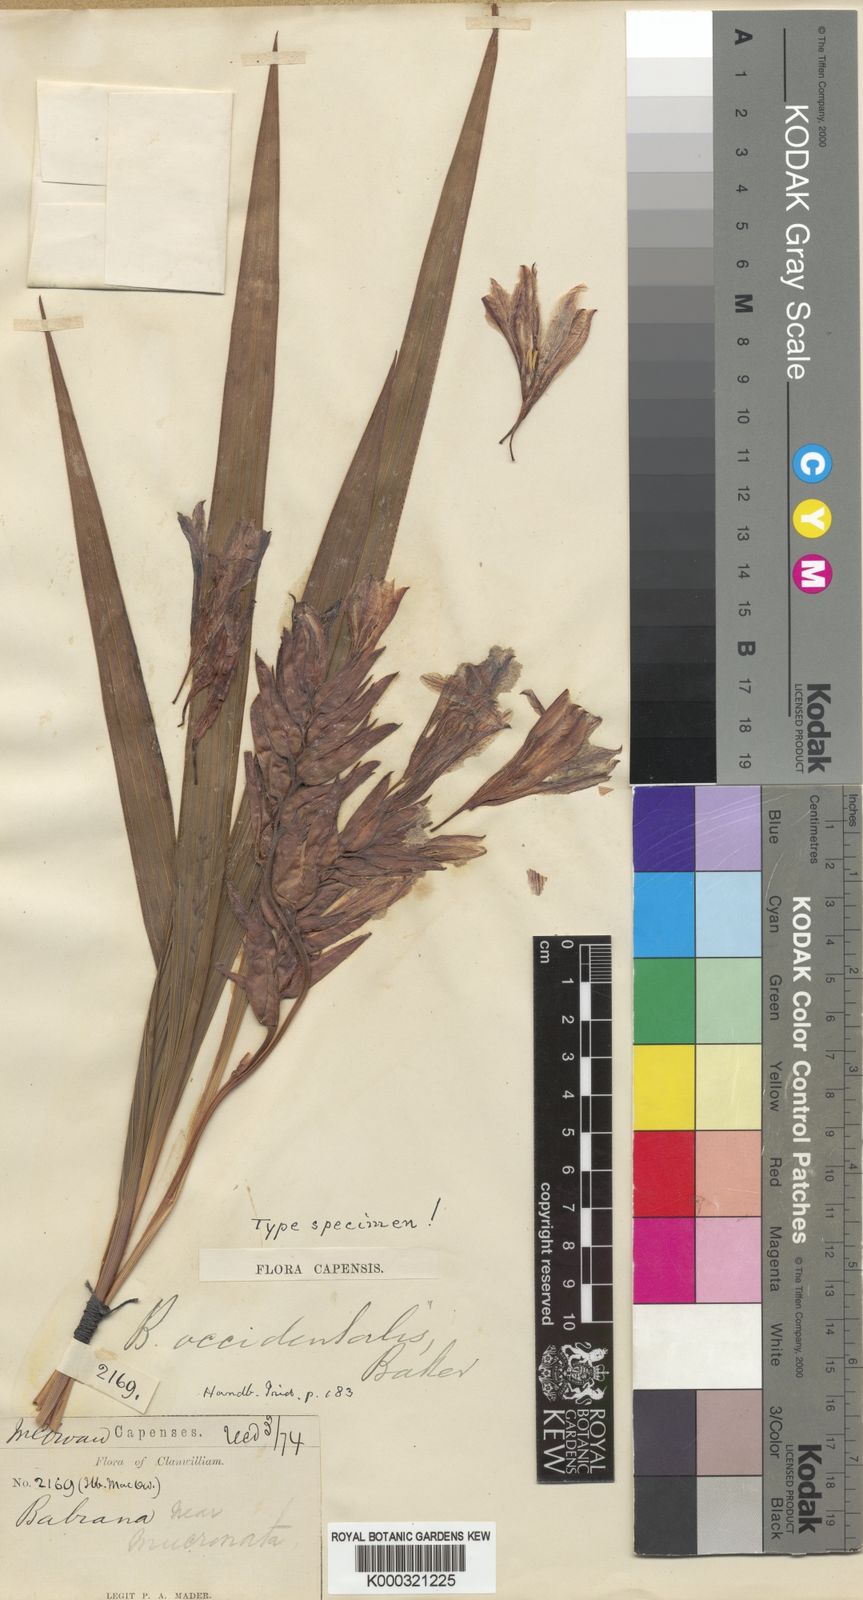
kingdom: Plantae
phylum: Tracheophyta
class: Liliopsida
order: Asparagales
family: Iridaceae
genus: Babiana
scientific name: Babiana scabrifolia
